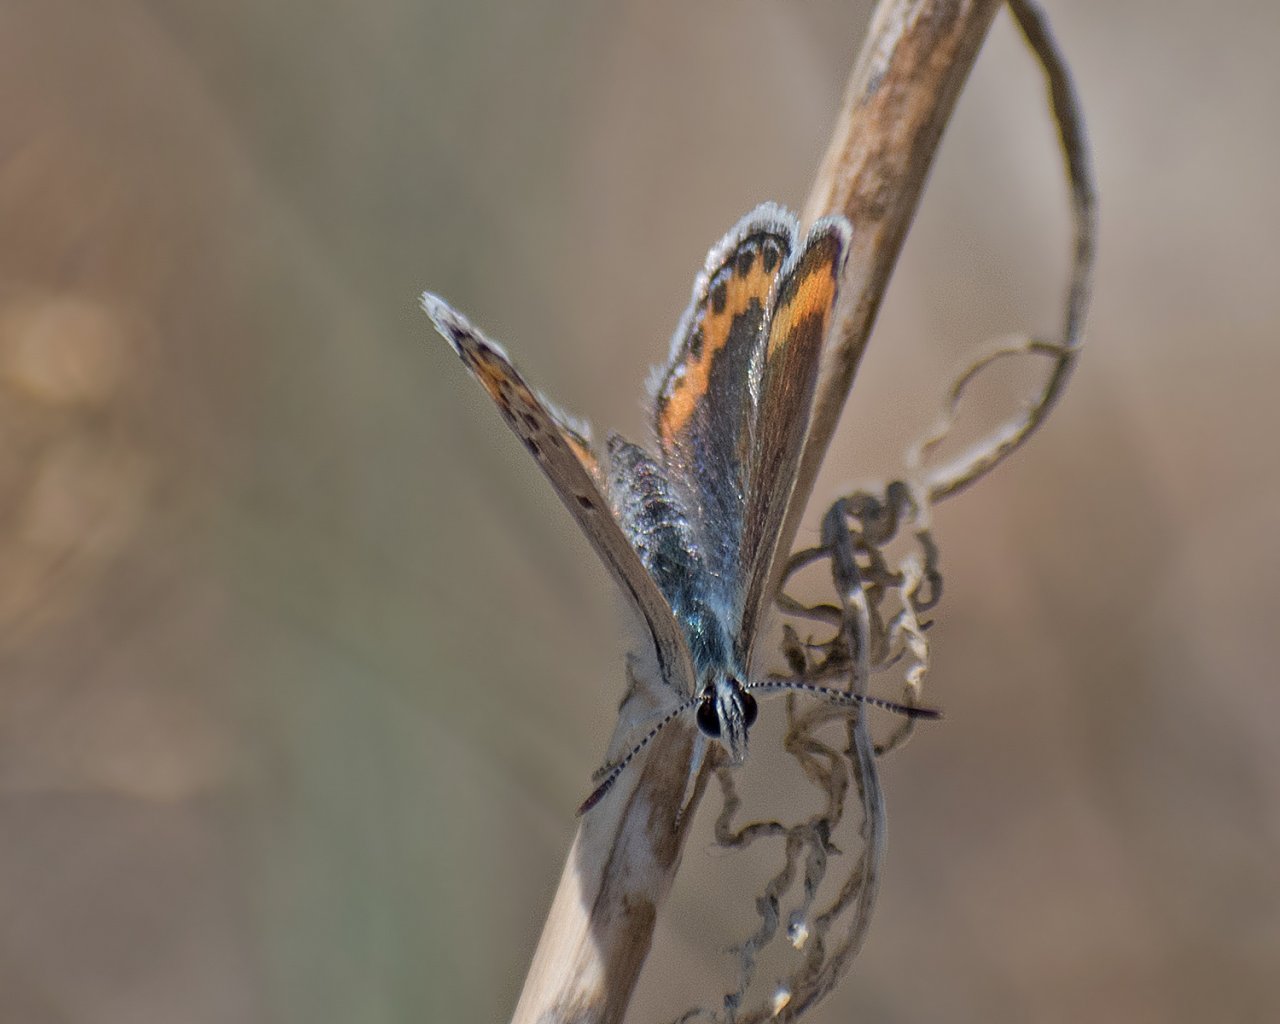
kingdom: Animalia
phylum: Arthropoda
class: Insecta
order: Lepidoptera
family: Lycaenidae
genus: Lycaeides
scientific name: Lycaeides melissa
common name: Melissa Blue
